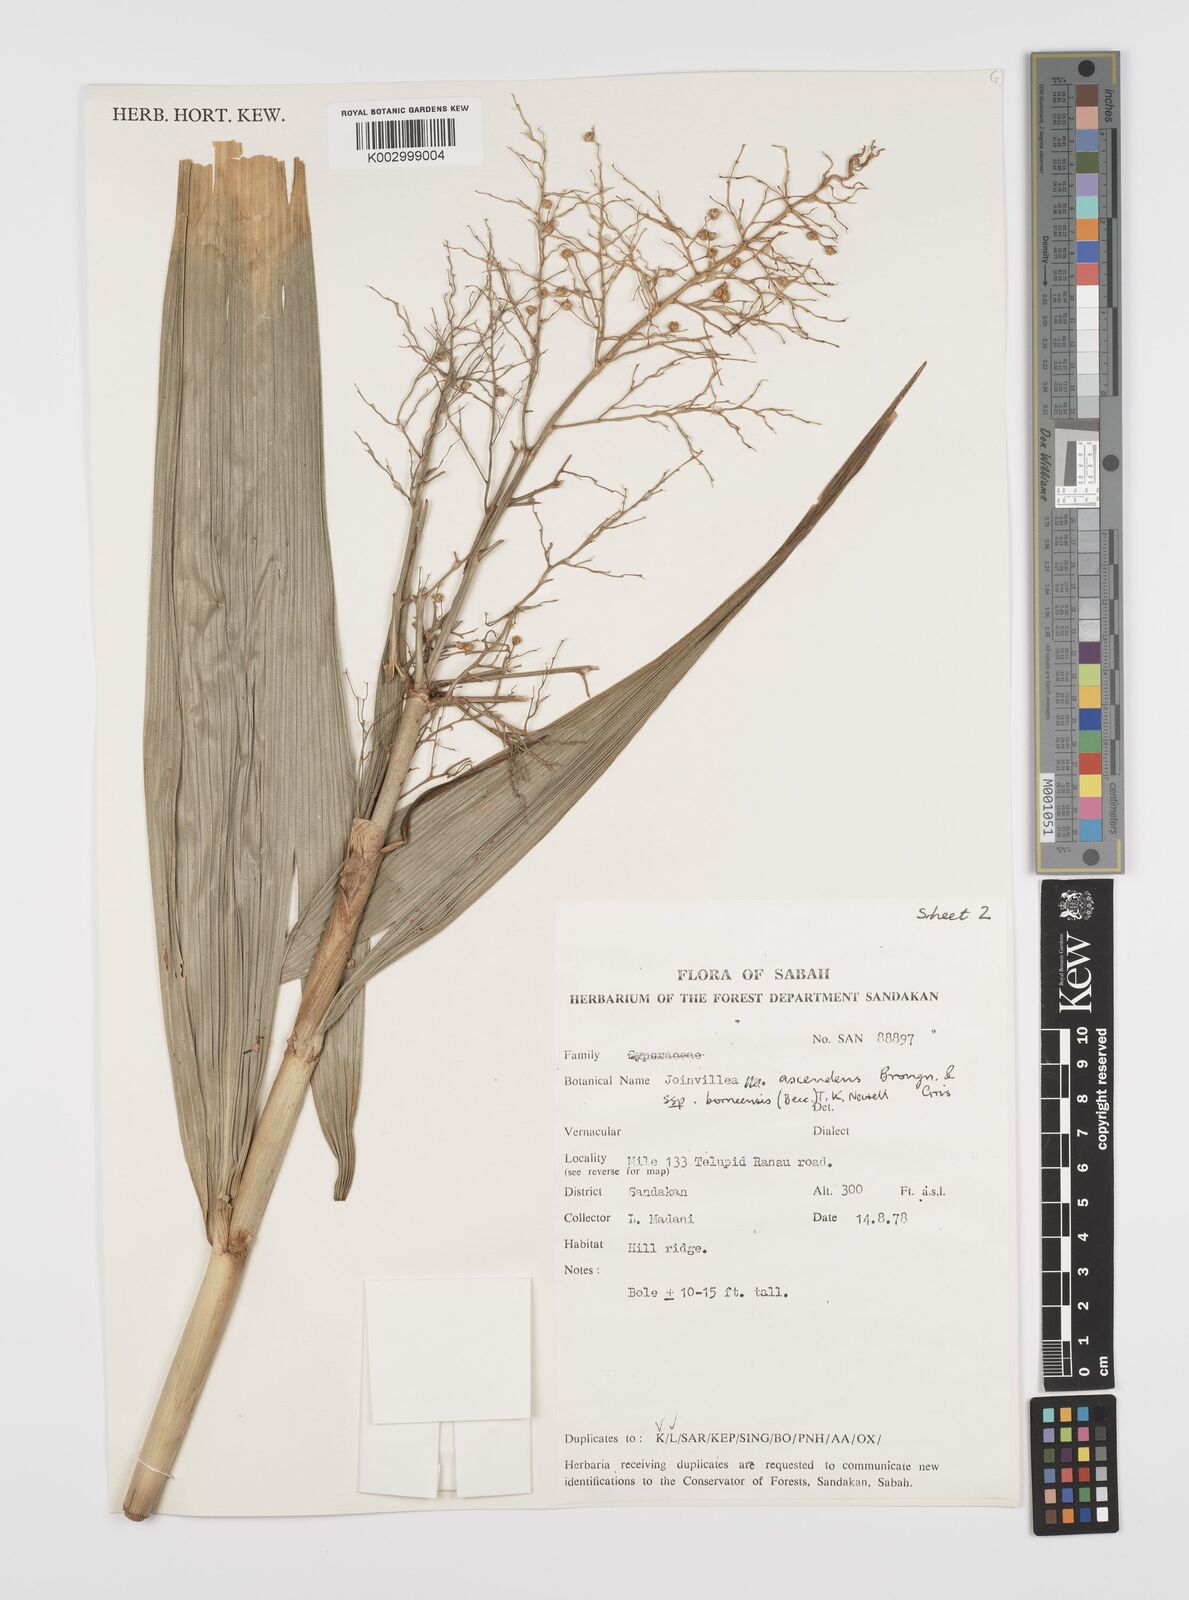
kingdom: Plantae
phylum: Tracheophyta
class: Liliopsida
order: Poales
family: Joinvilleaceae
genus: Joinvillea
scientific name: Joinvillea borneensis
